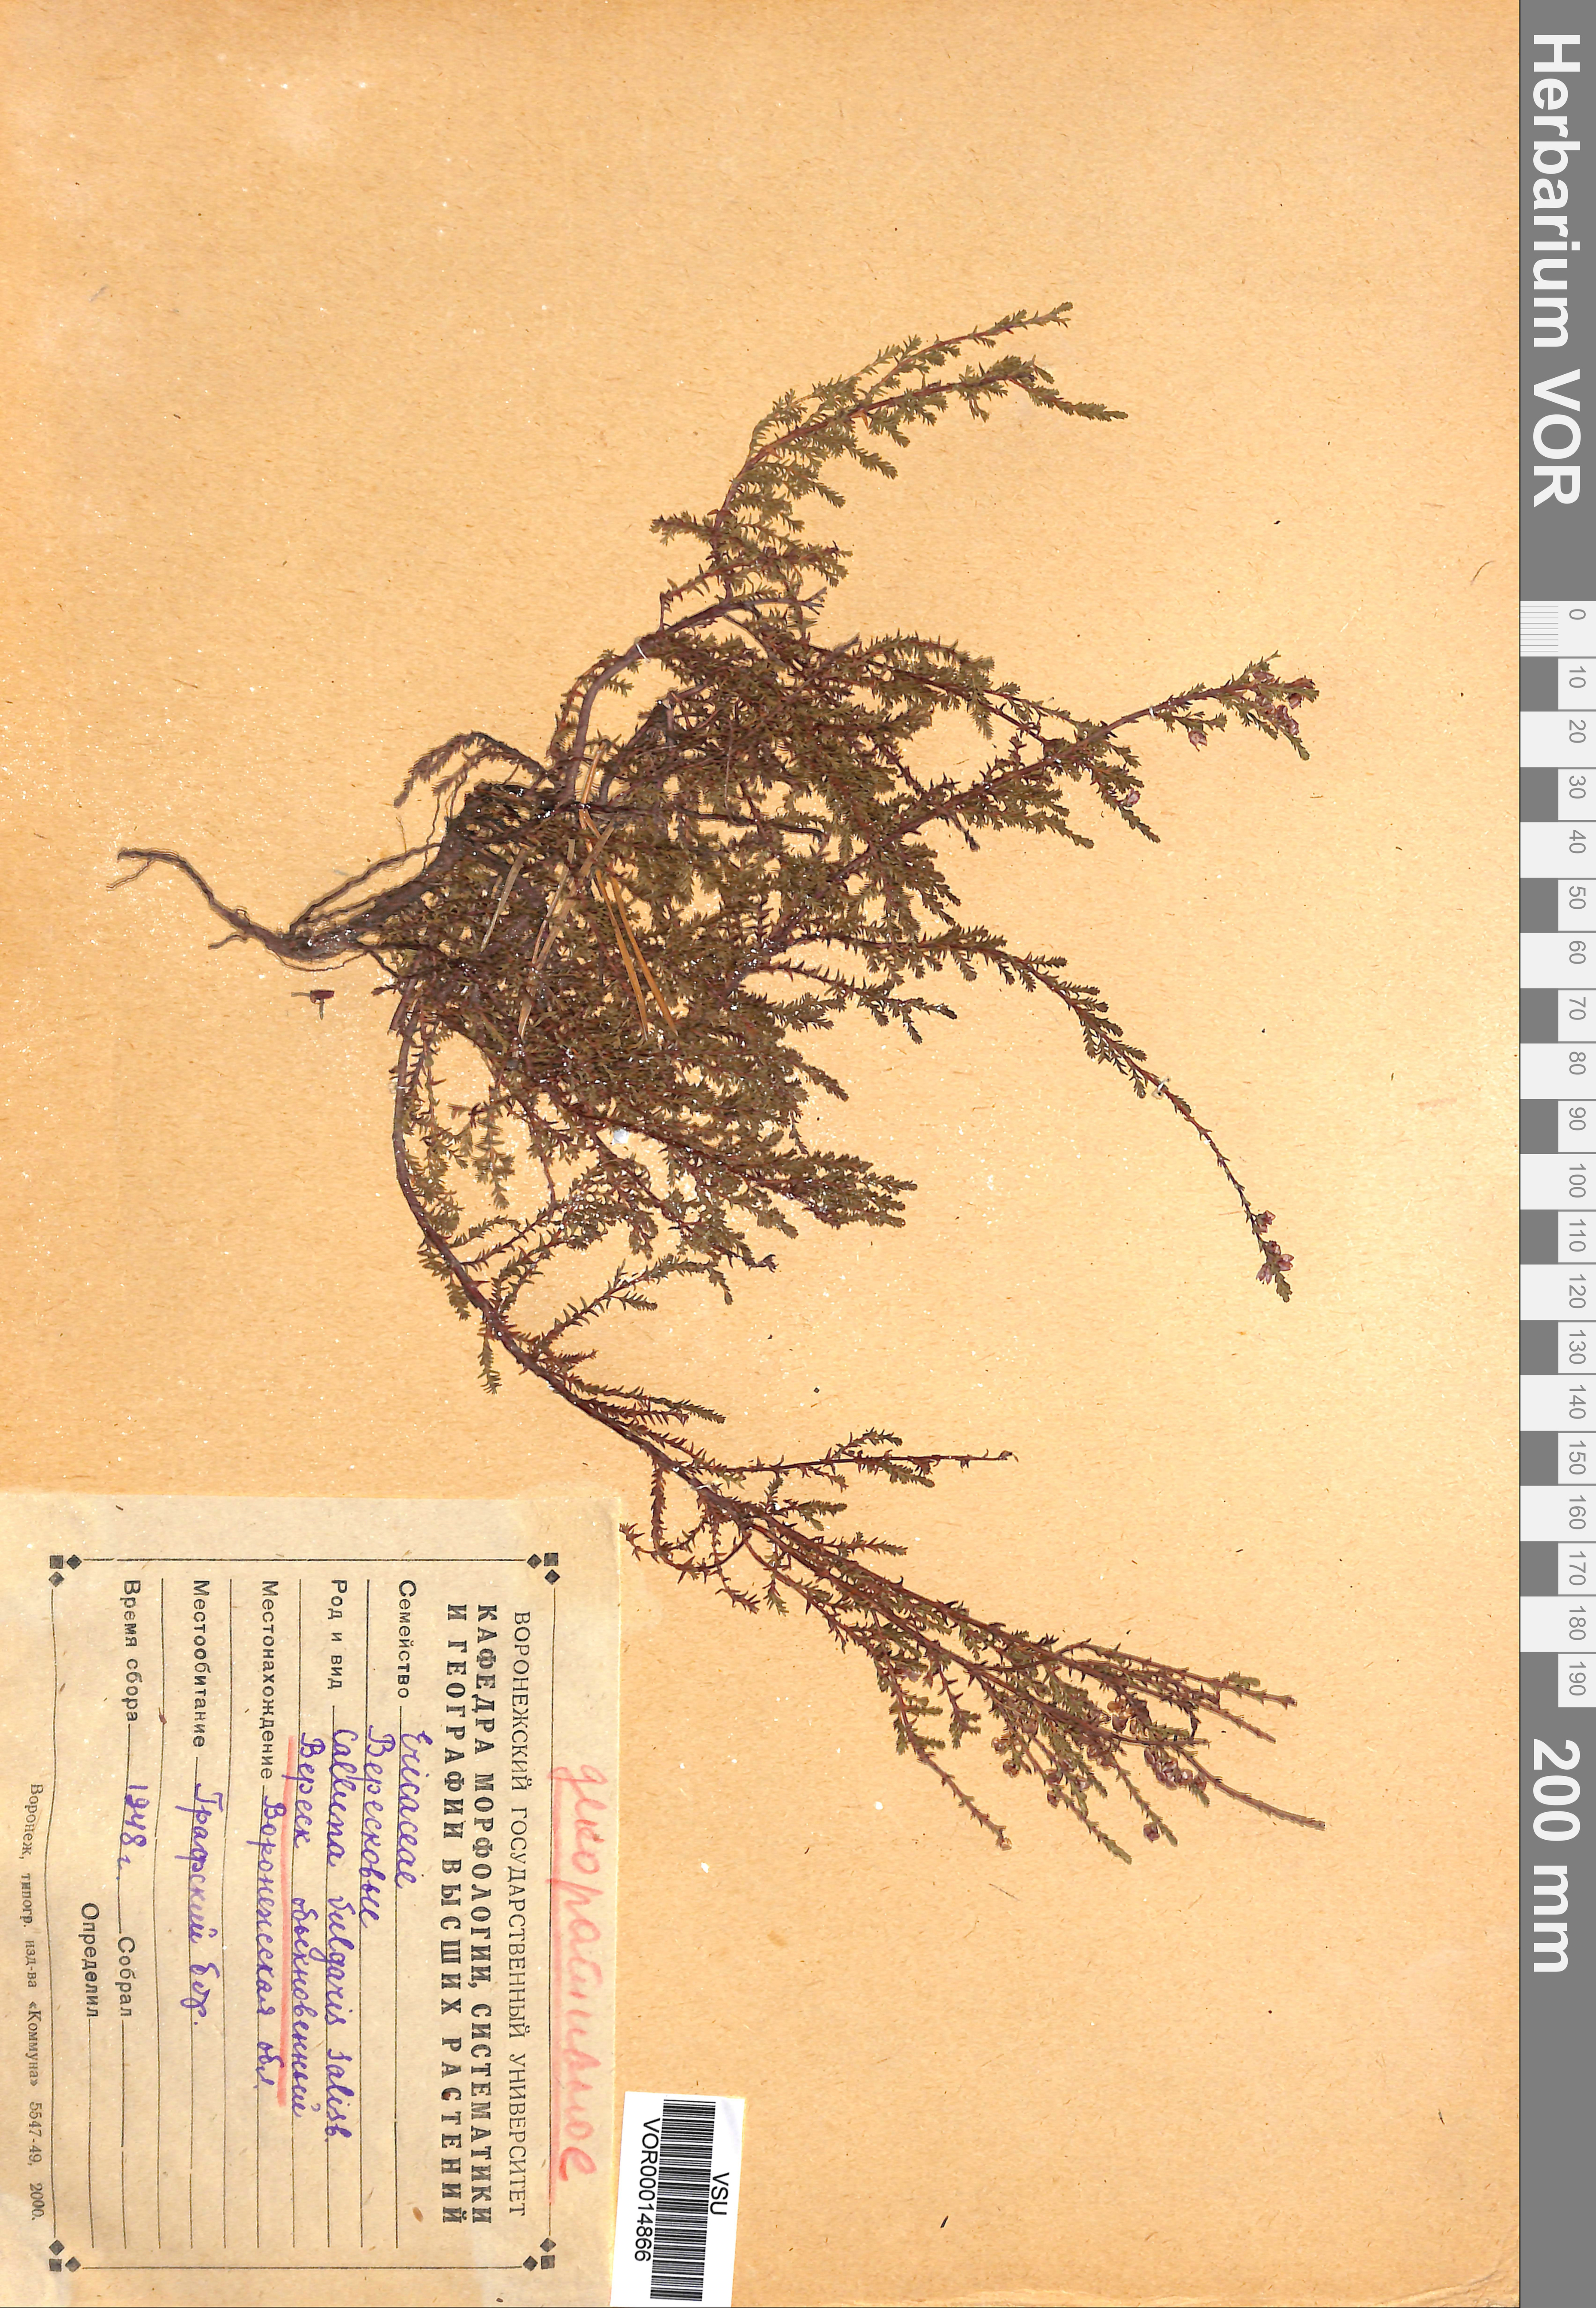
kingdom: Plantae
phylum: Tracheophyta
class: Magnoliopsida
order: Ericales
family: Ericaceae
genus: Calluna
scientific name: Calluna vulgaris
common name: Heather
